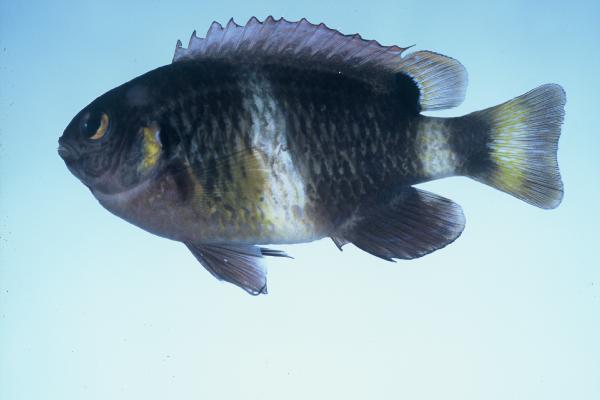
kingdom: Animalia
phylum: Chordata
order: Perciformes
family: Pomacentridae
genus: Chrysiptera
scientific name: Chrysiptera brownriggii
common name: Surge demoiselle
